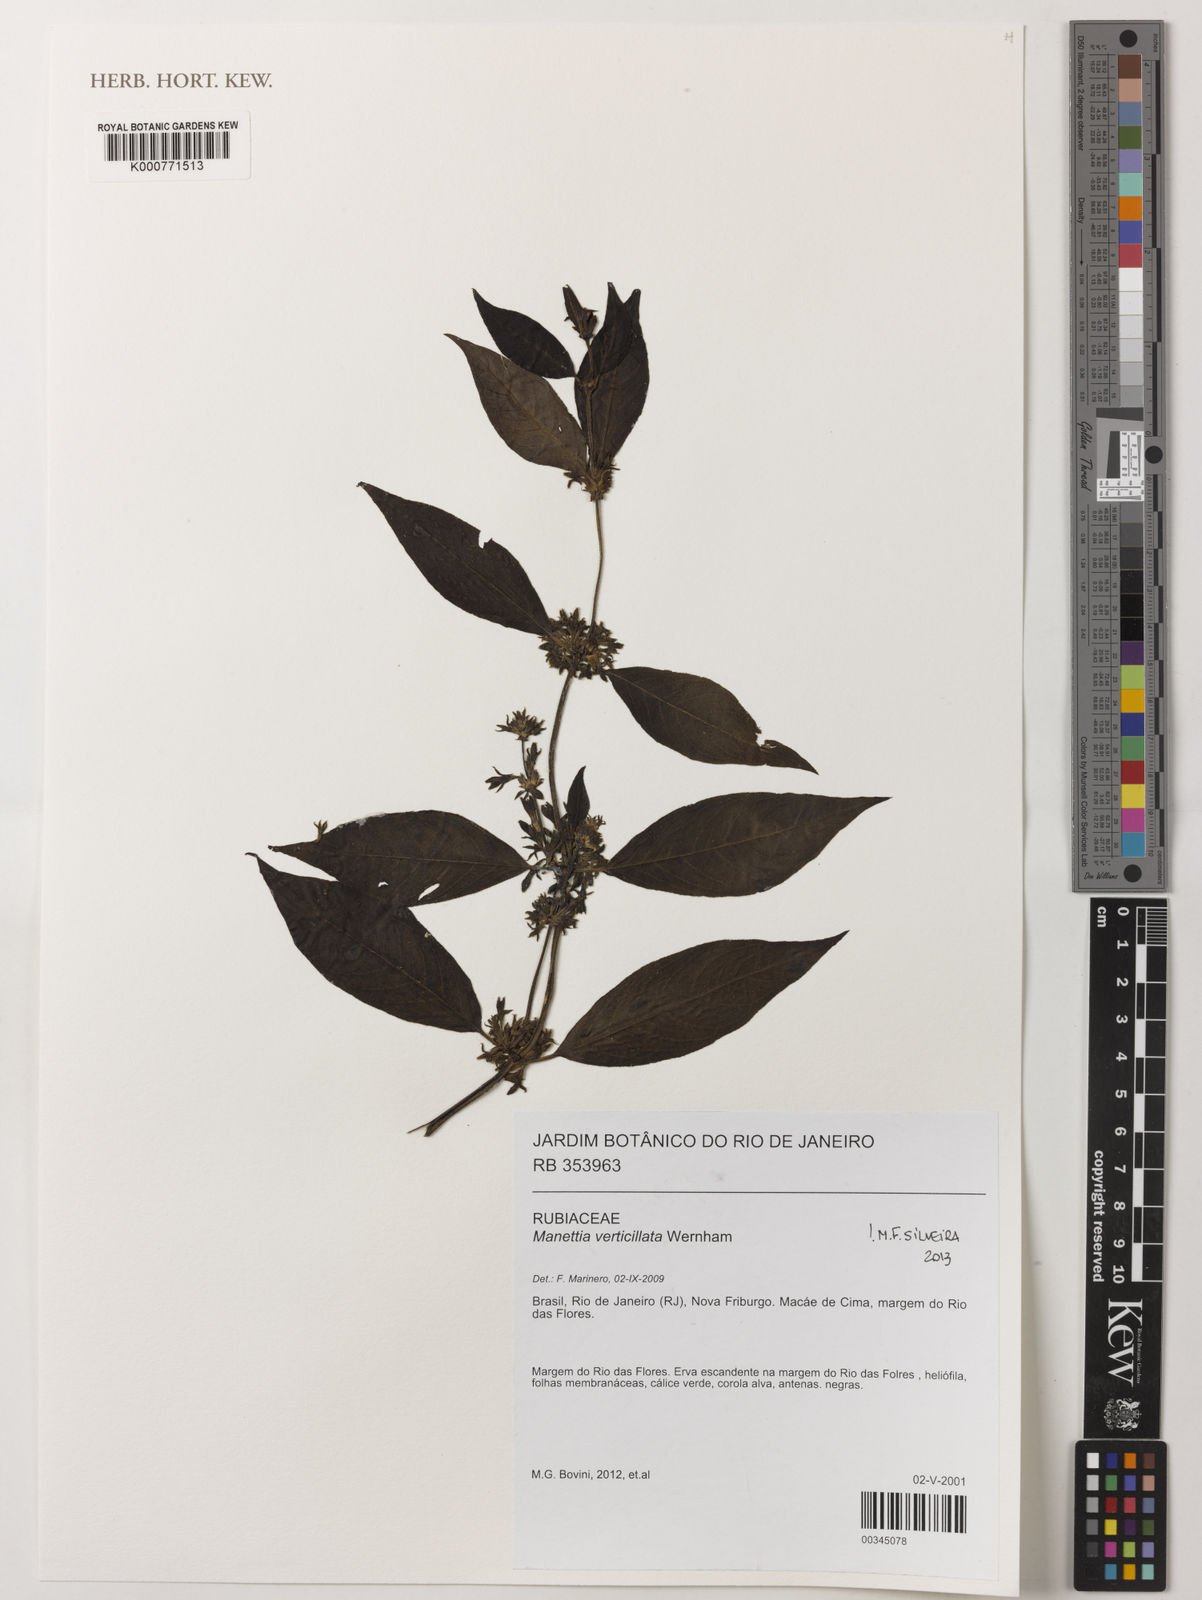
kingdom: Plantae
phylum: Tracheophyta
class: Magnoliopsida
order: Gentianales
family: Rubiaceae
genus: Manettia
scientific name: Manettia verticillata
